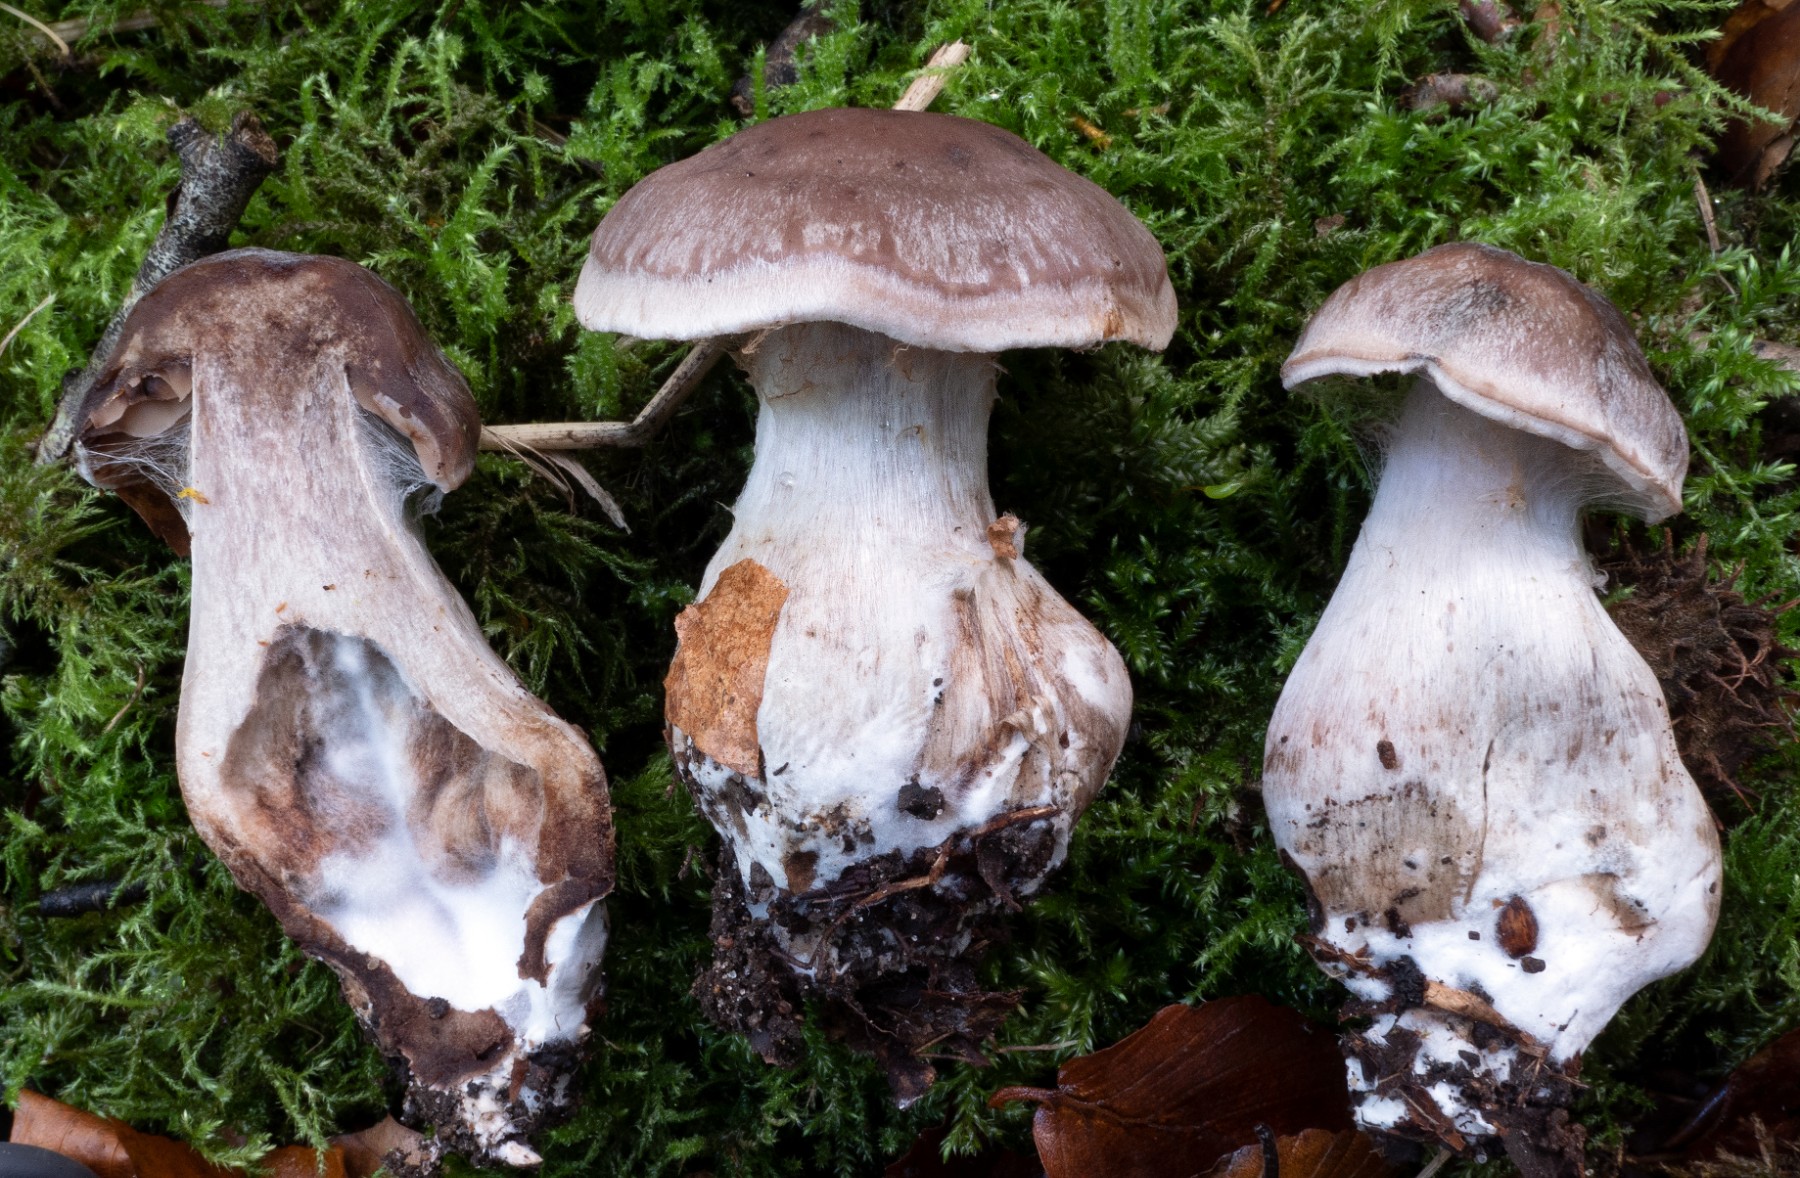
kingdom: Fungi
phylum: Basidiomycota
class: Agaricomycetes
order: Agaricales
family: Cortinariaceae
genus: Cortinarius
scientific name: Cortinarius aleuriodor
